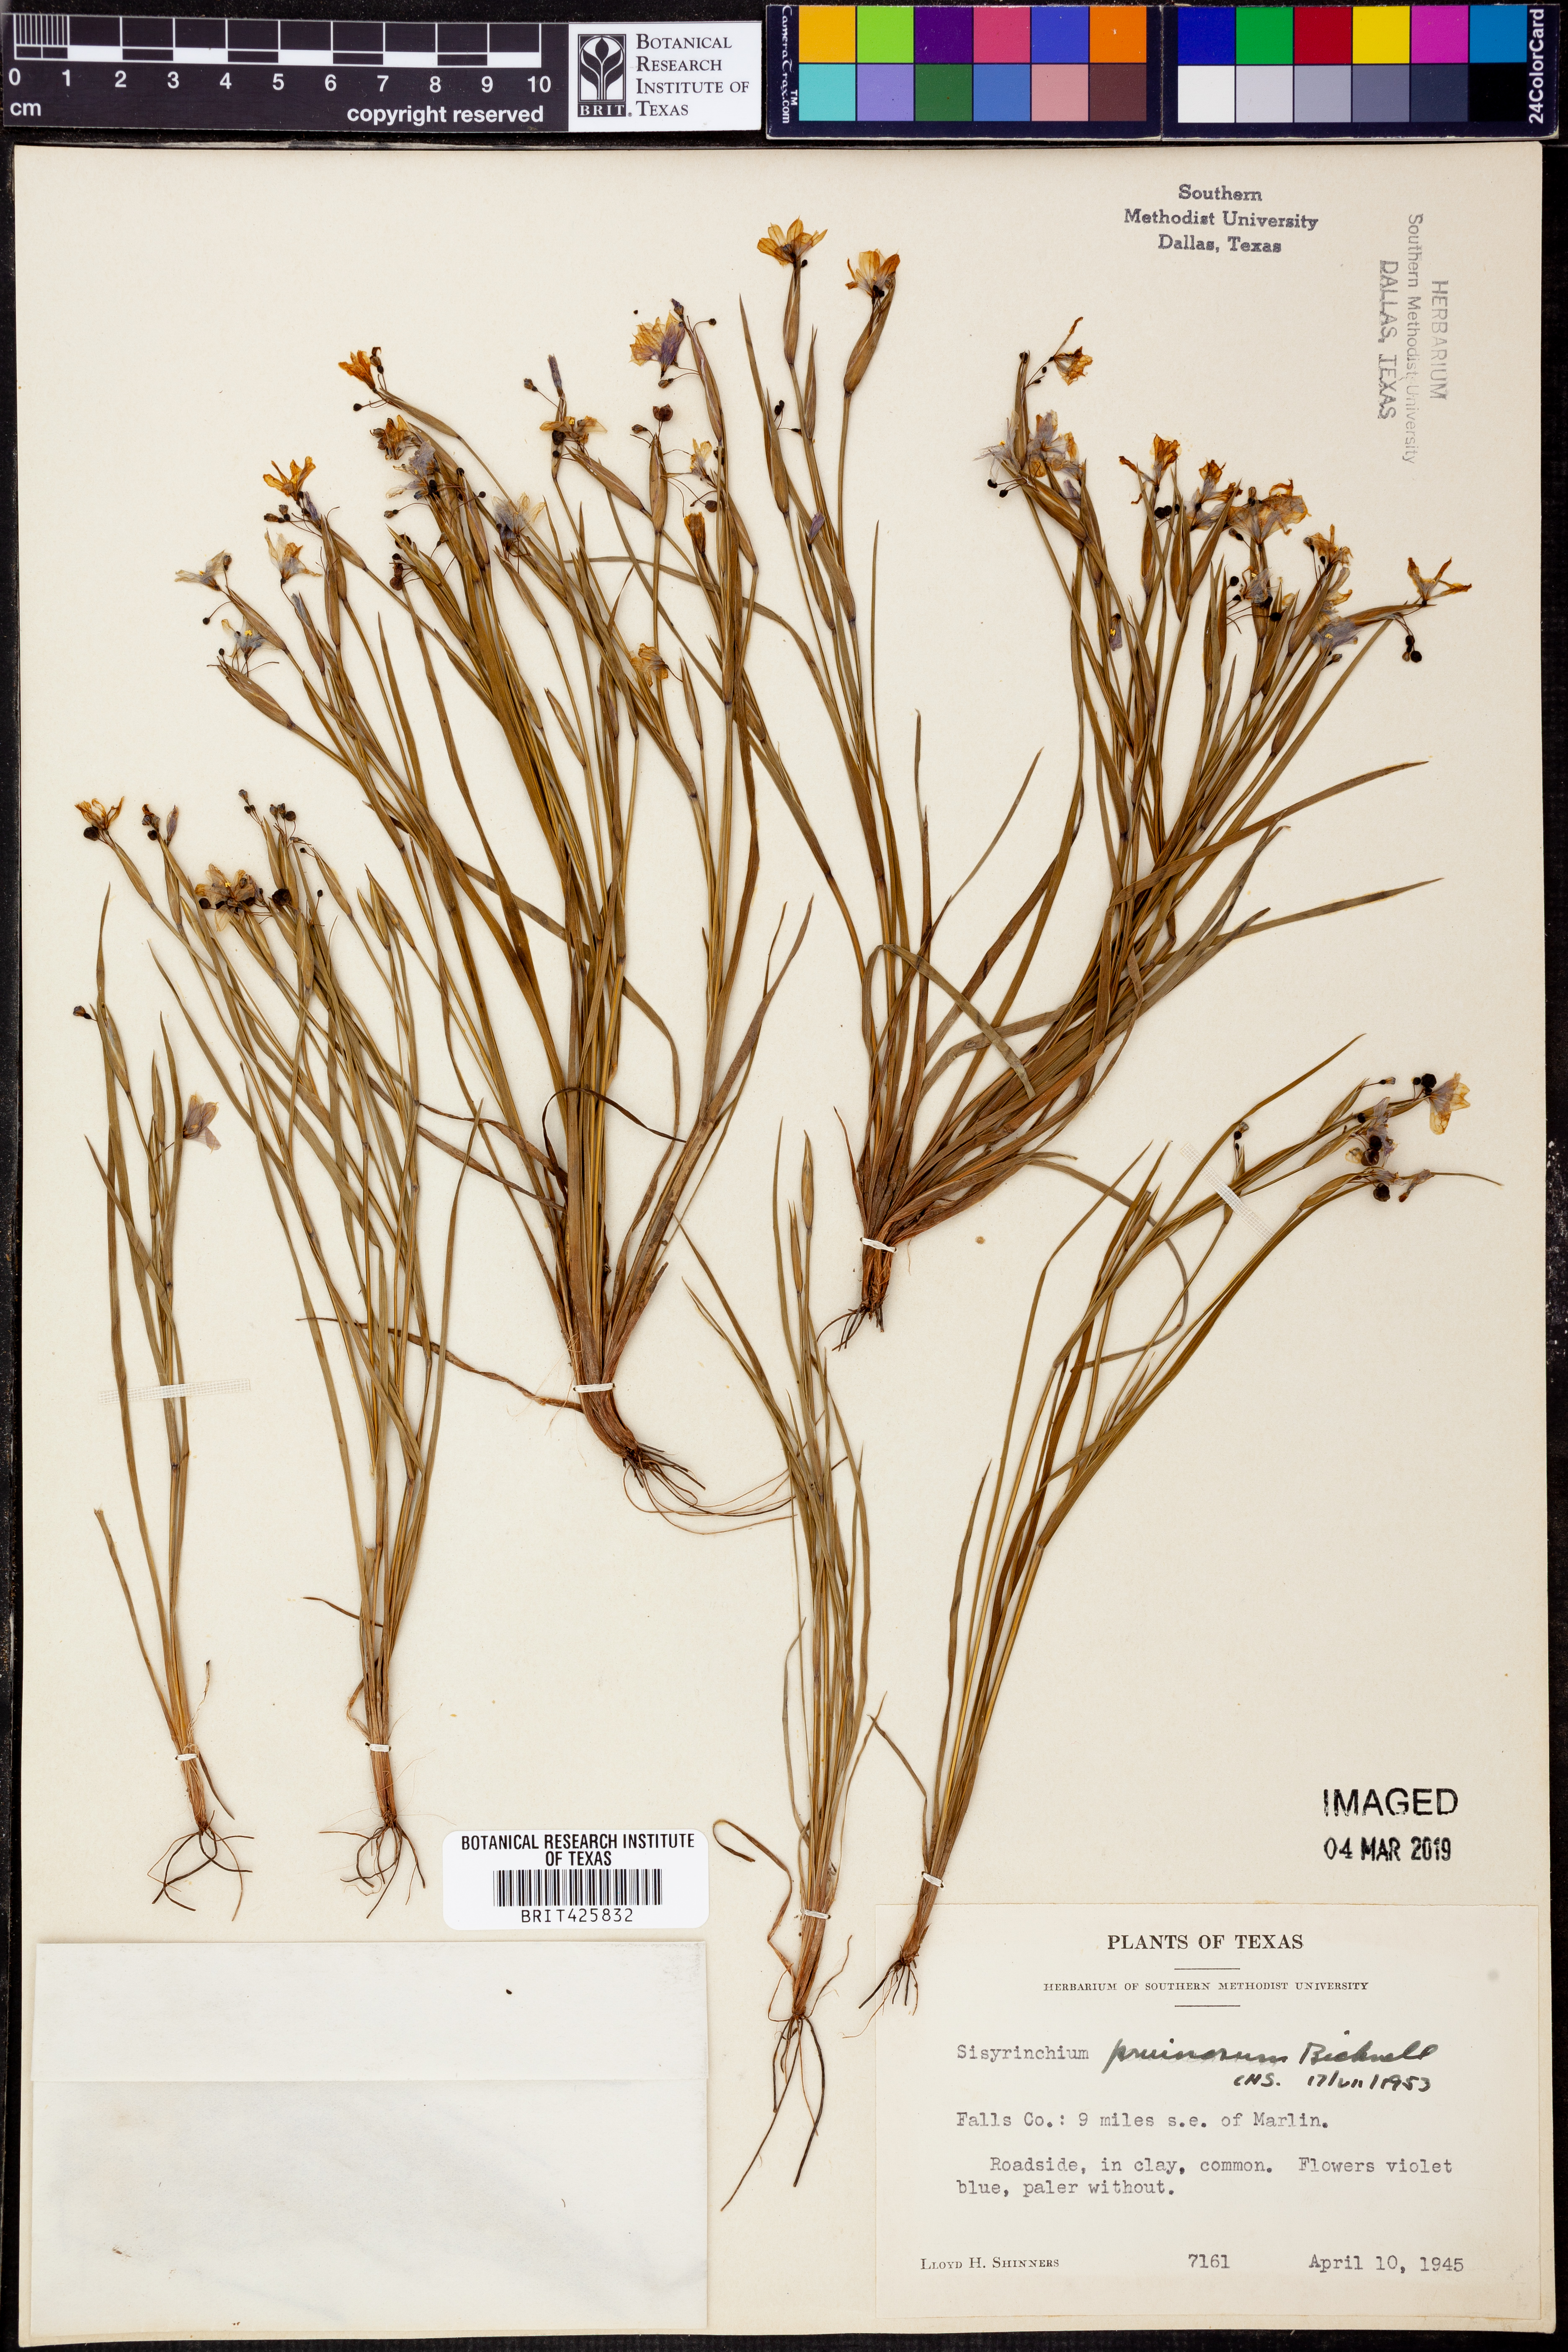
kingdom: Plantae
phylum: Tracheophyta
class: Liliopsida
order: Asparagales
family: Iridaceae
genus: Sisyrinchium
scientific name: Sisyrinchium pruinosum
